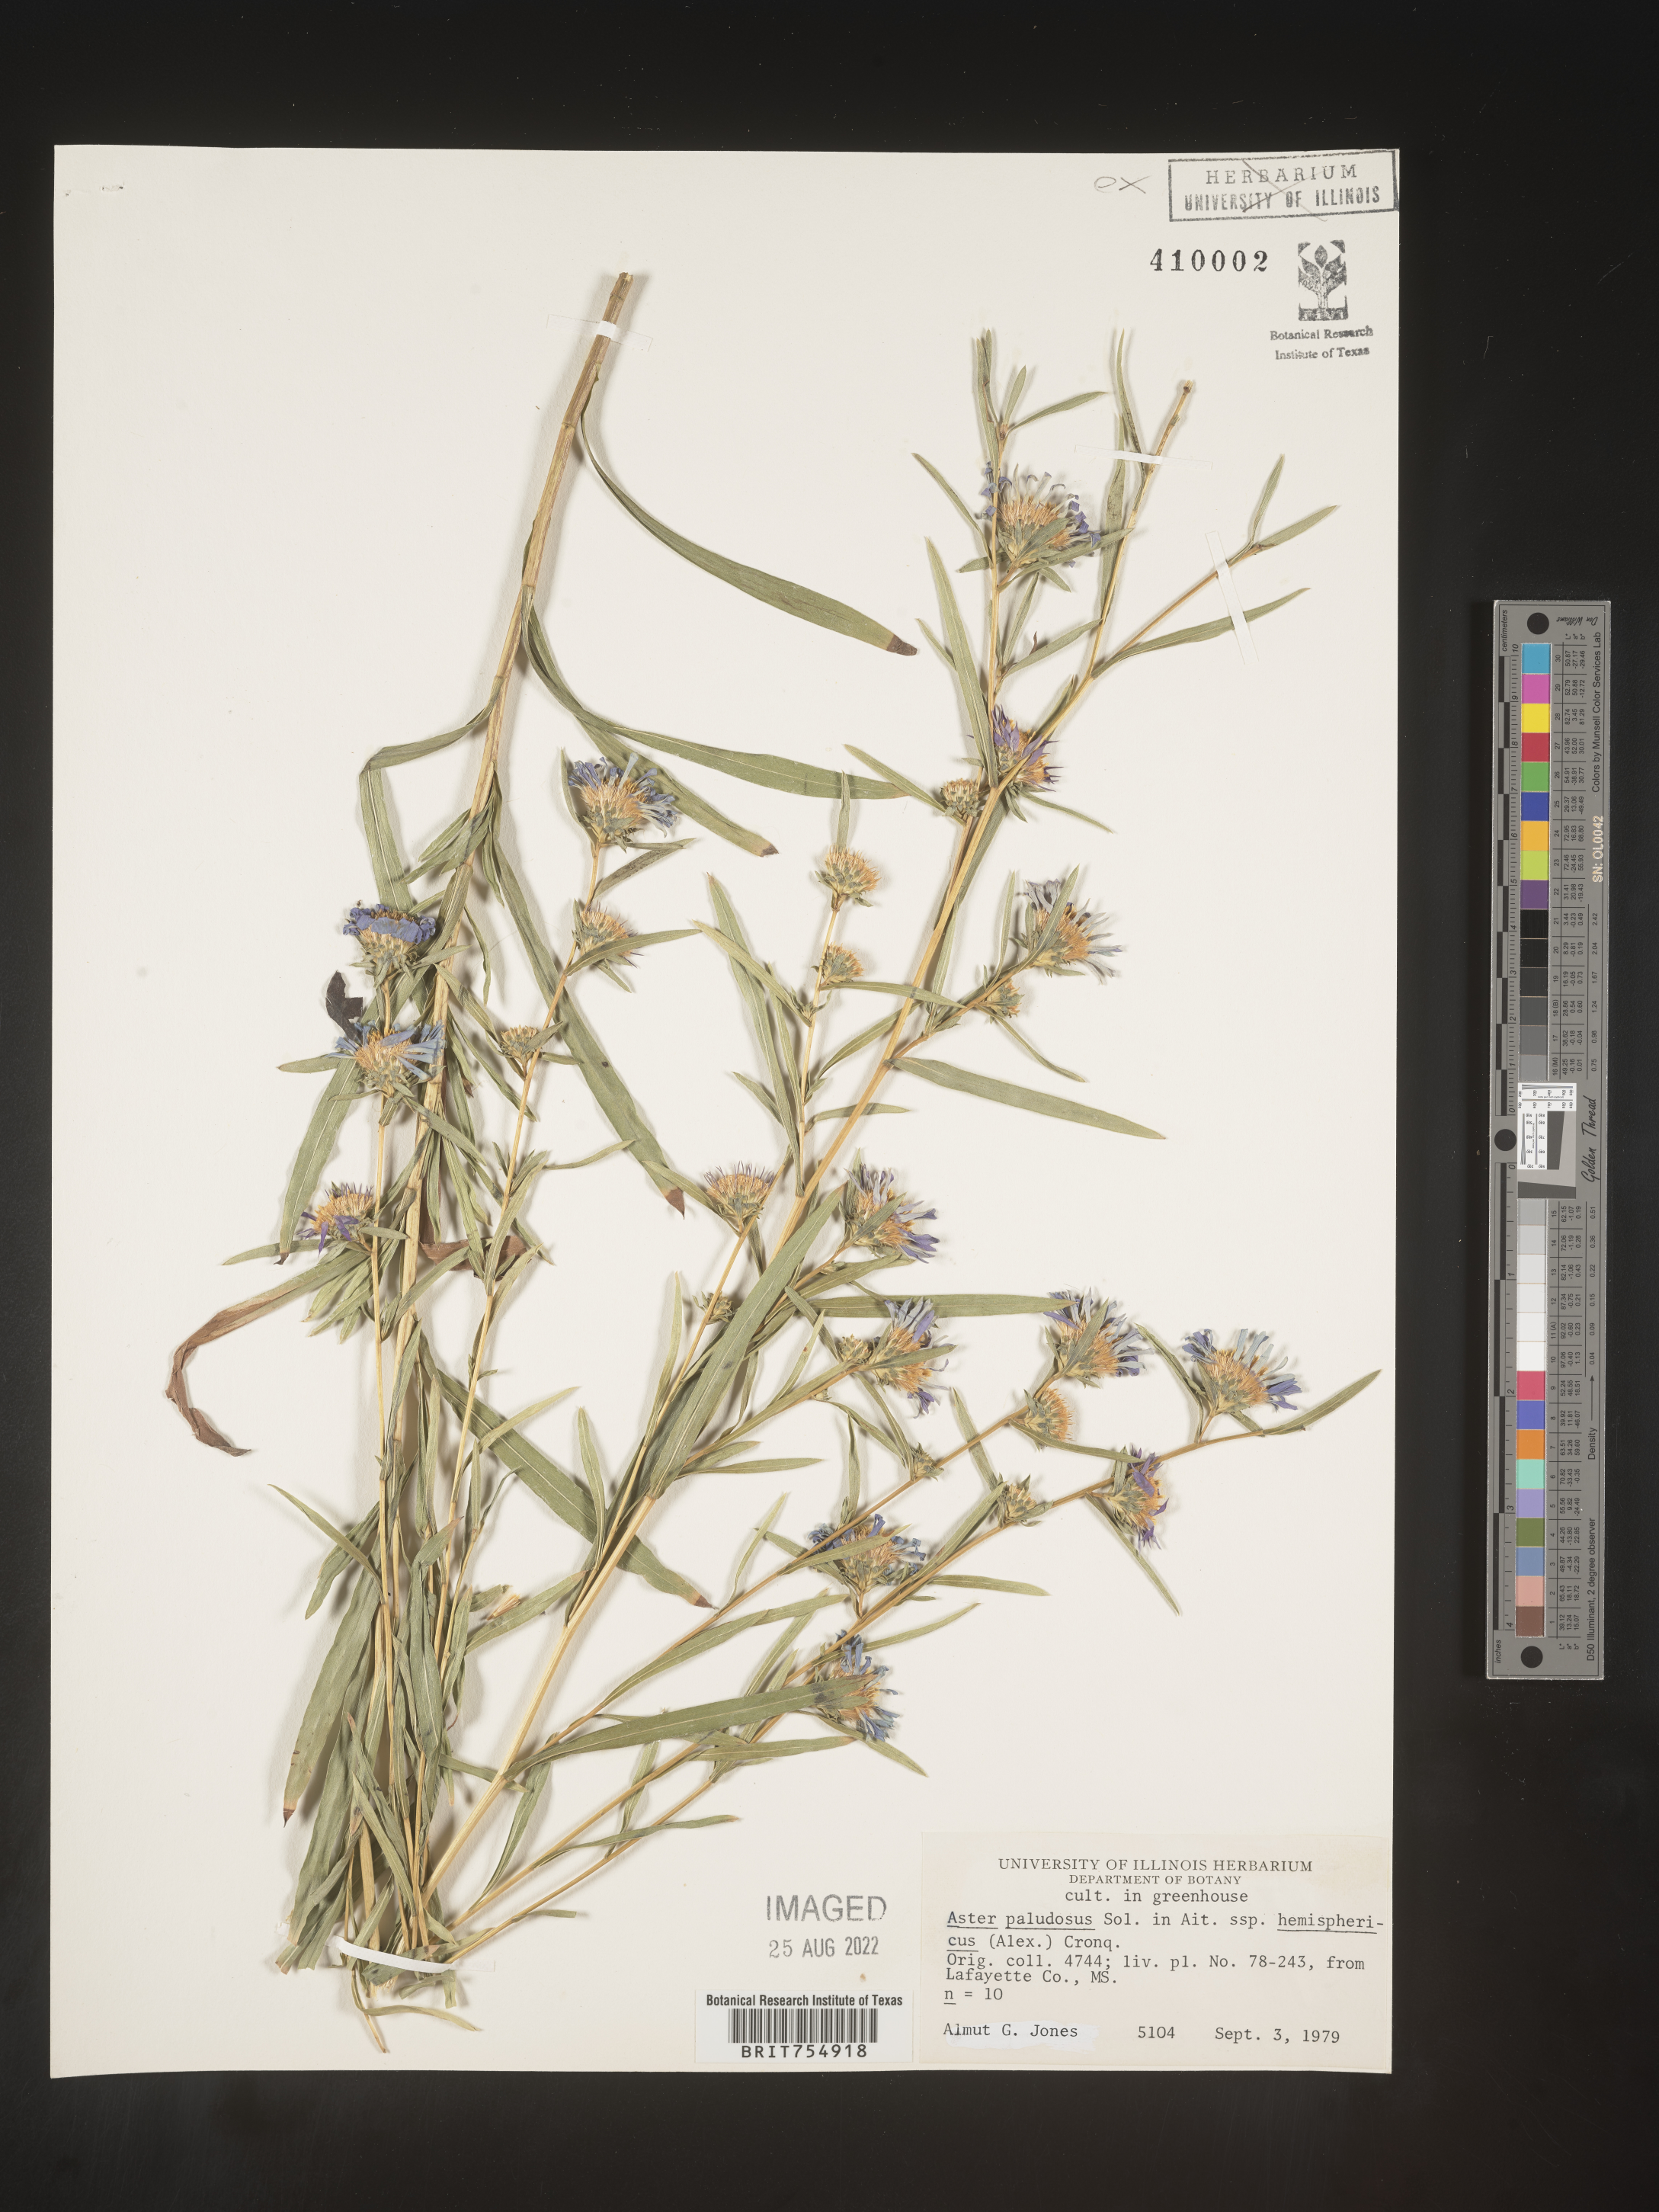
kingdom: Plantae
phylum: Tracheophyta
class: Magnoliopsida
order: Asterales
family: Asteraceae
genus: Symphyotrichum
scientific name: Symphyotrichum
